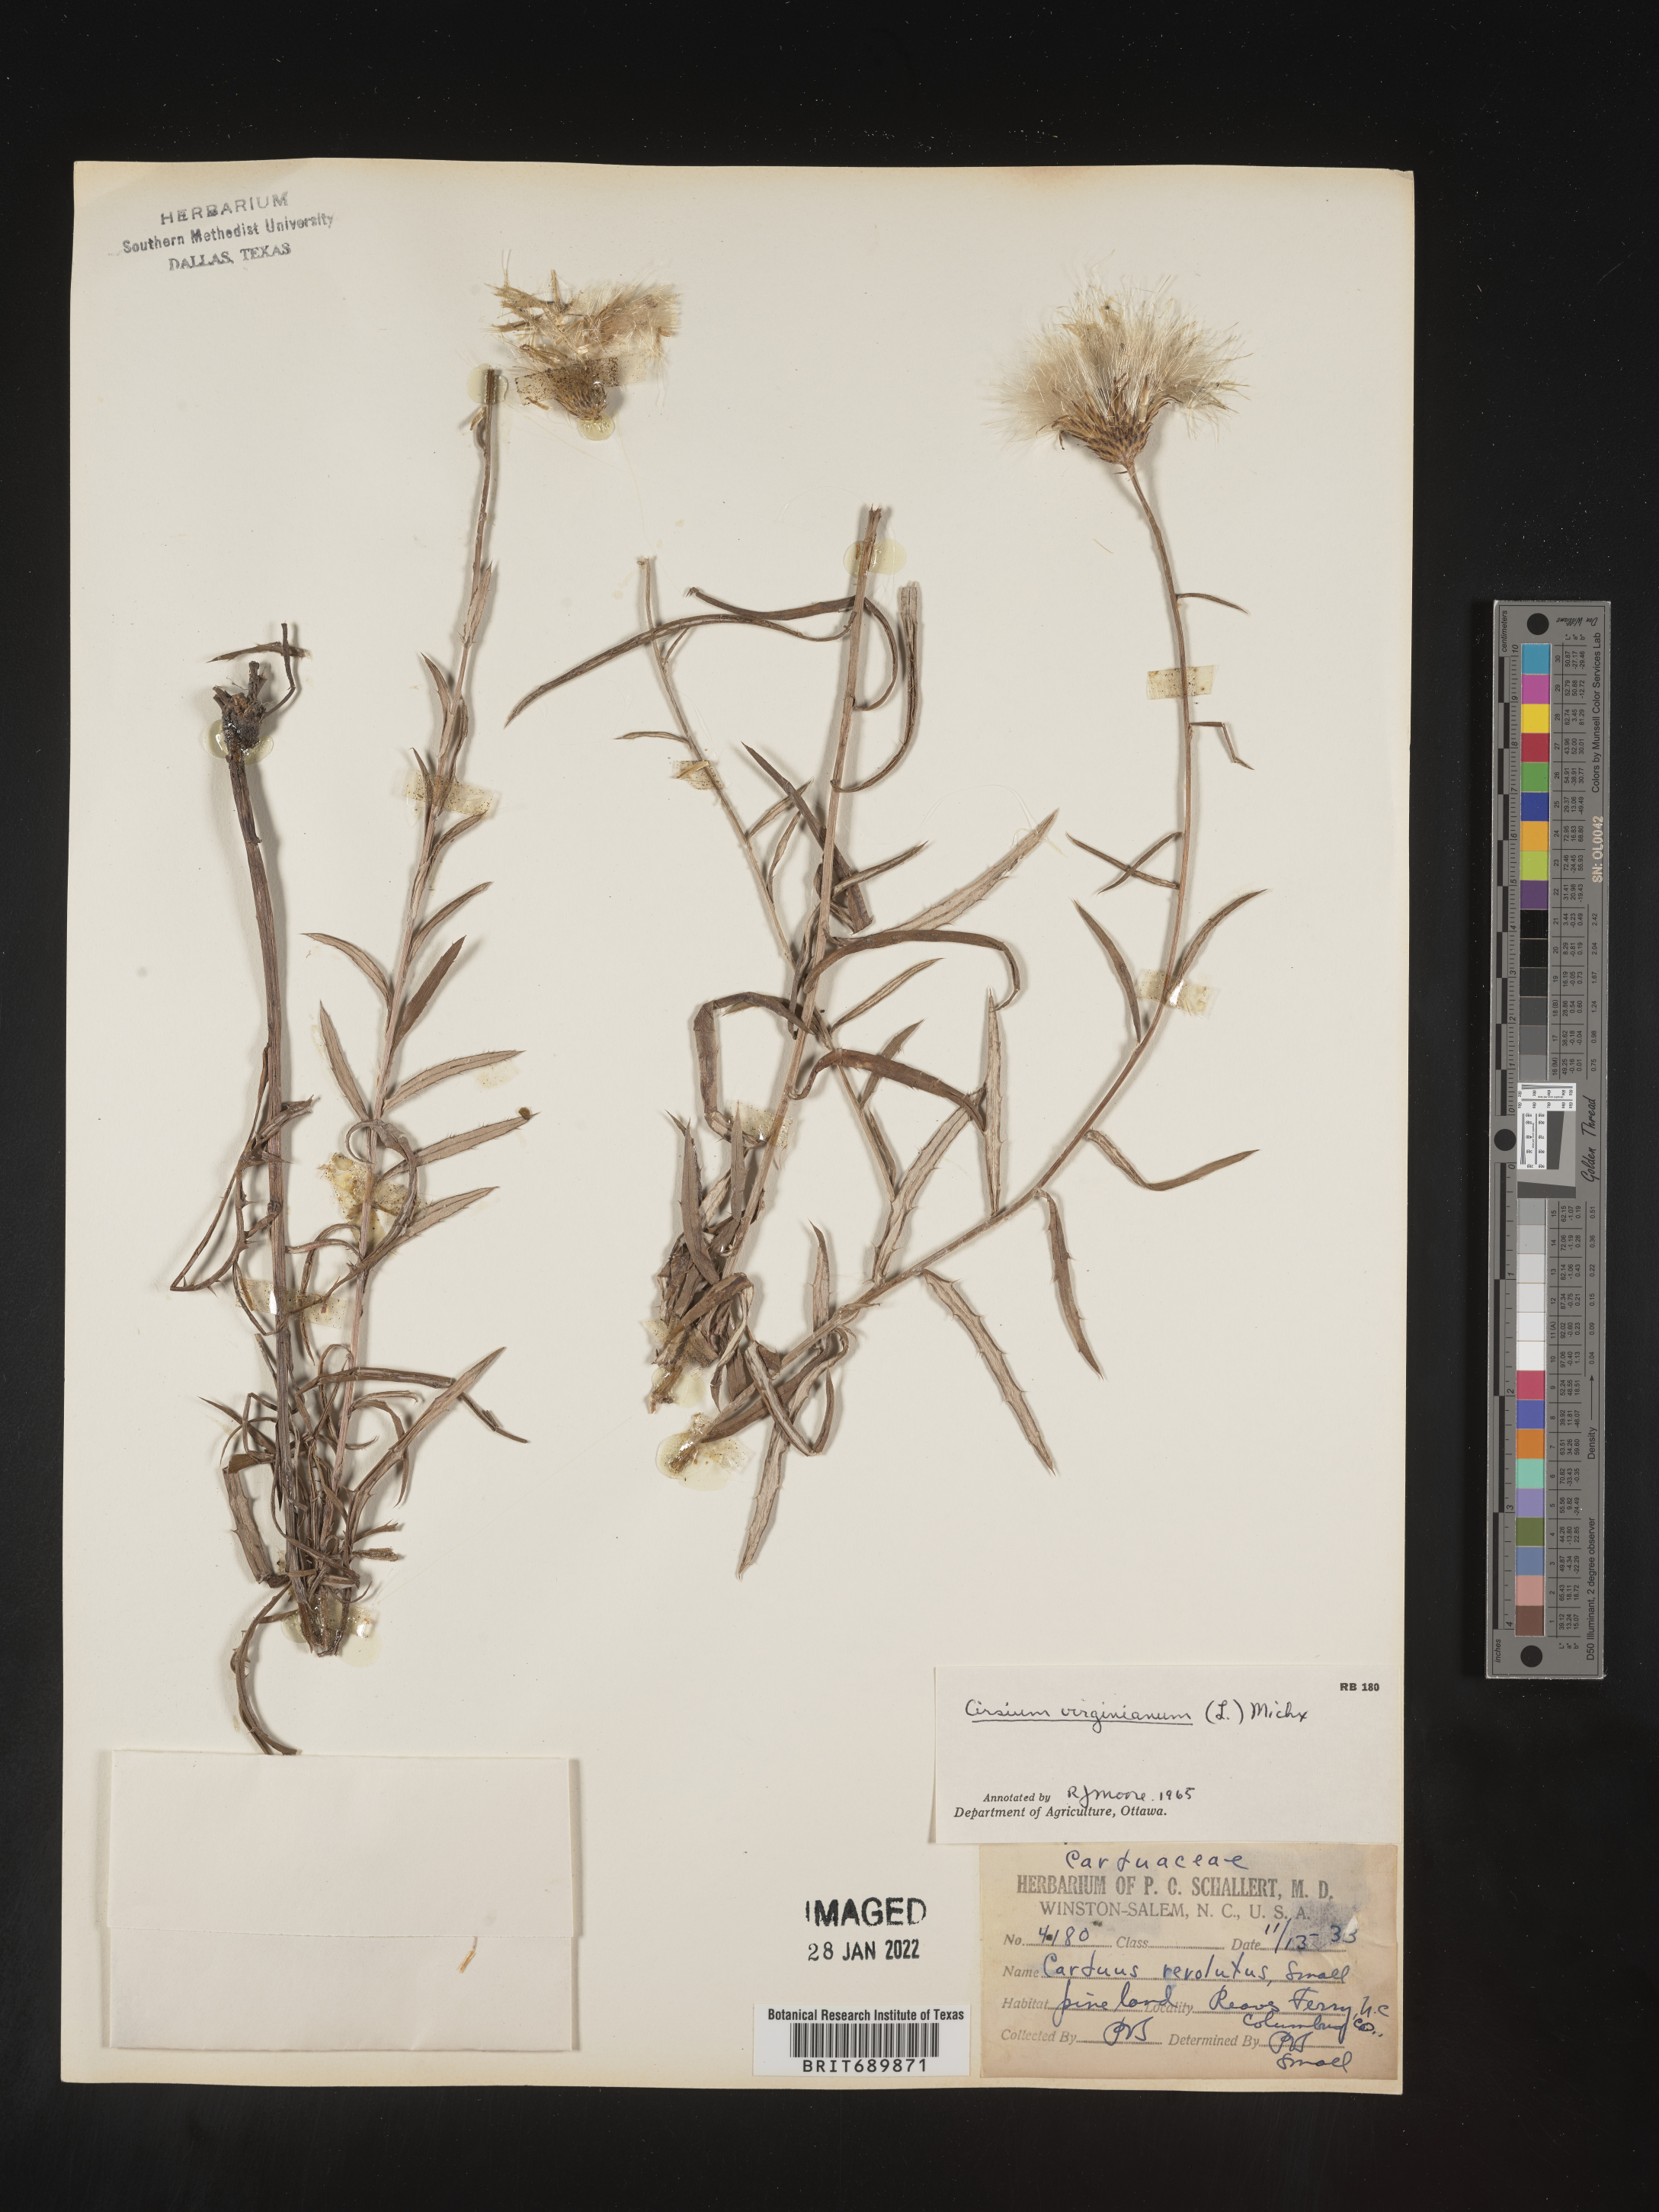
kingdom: Plantae
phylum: Tracheophyta
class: Magnoliopsida
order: Asterales
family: Asteraceae
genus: Cirsium
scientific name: Cirsium
